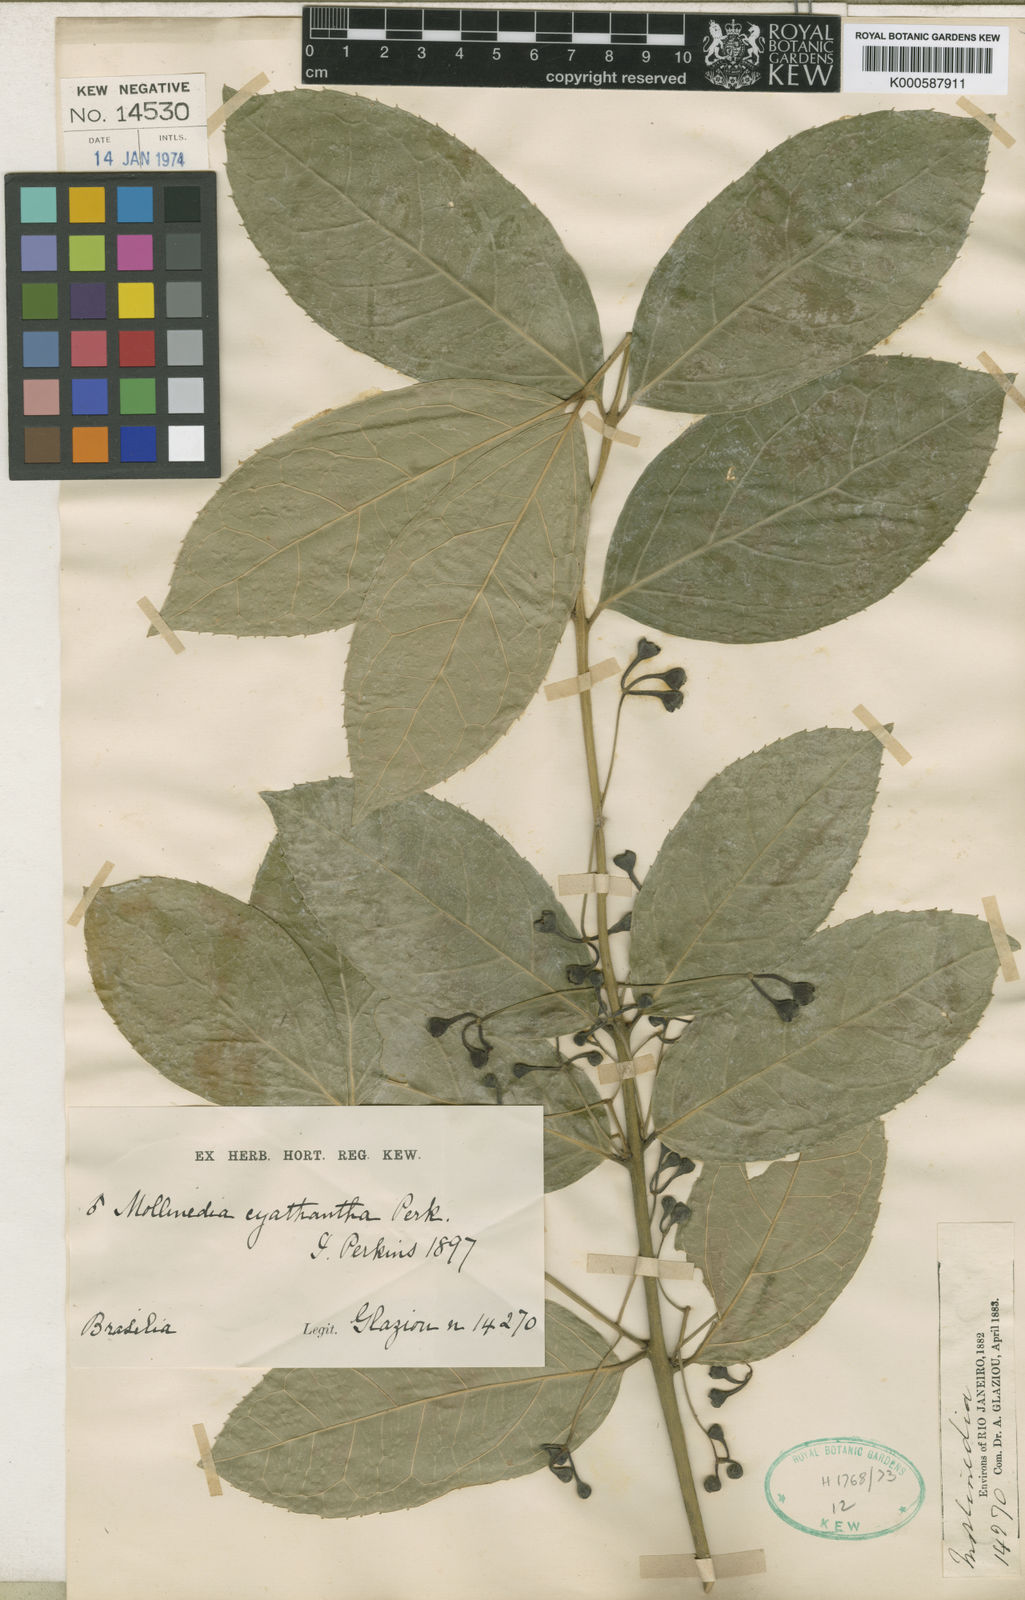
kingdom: Plantae
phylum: Tracheophyta
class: Magnoliopsida
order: Laurales
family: Monimiaceae
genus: Mollinedia
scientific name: Mollinedia ovata
